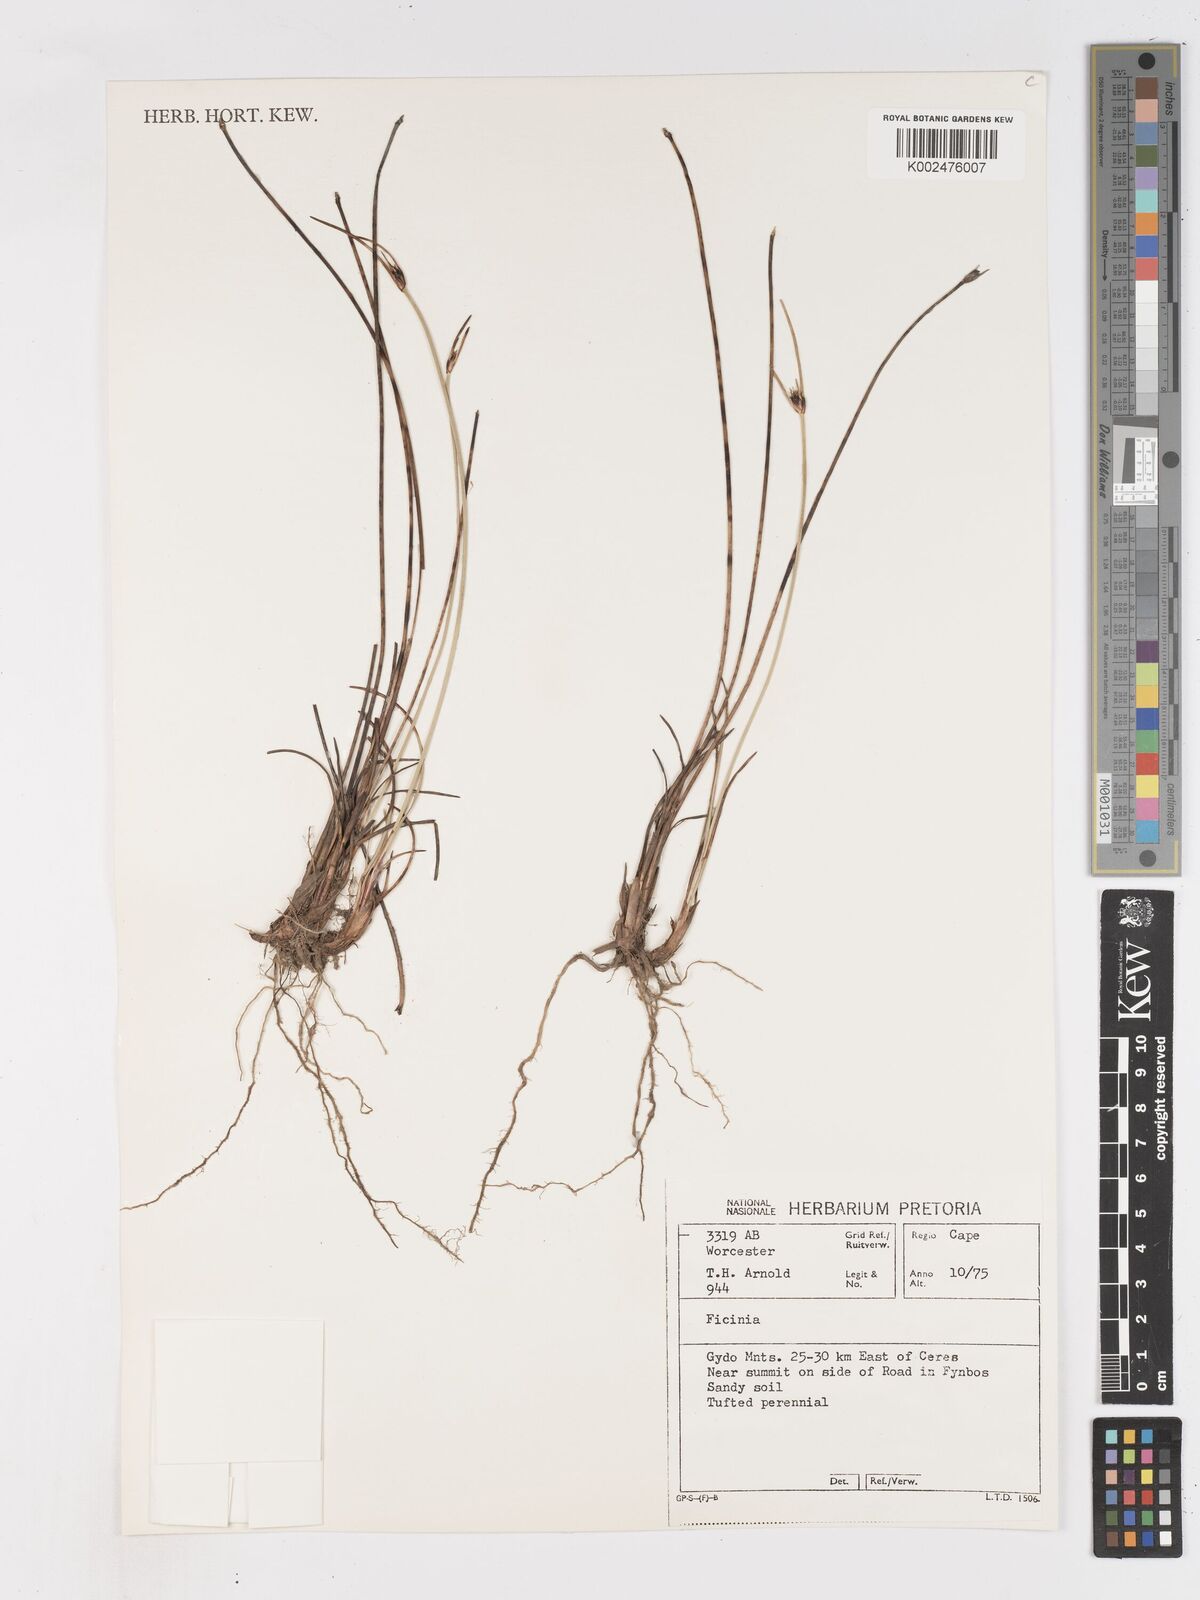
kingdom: Plantae
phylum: Tracheophyta
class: Liliopsida
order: Poales
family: Cyperaceae
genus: Ficinia
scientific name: Ficinia indica
